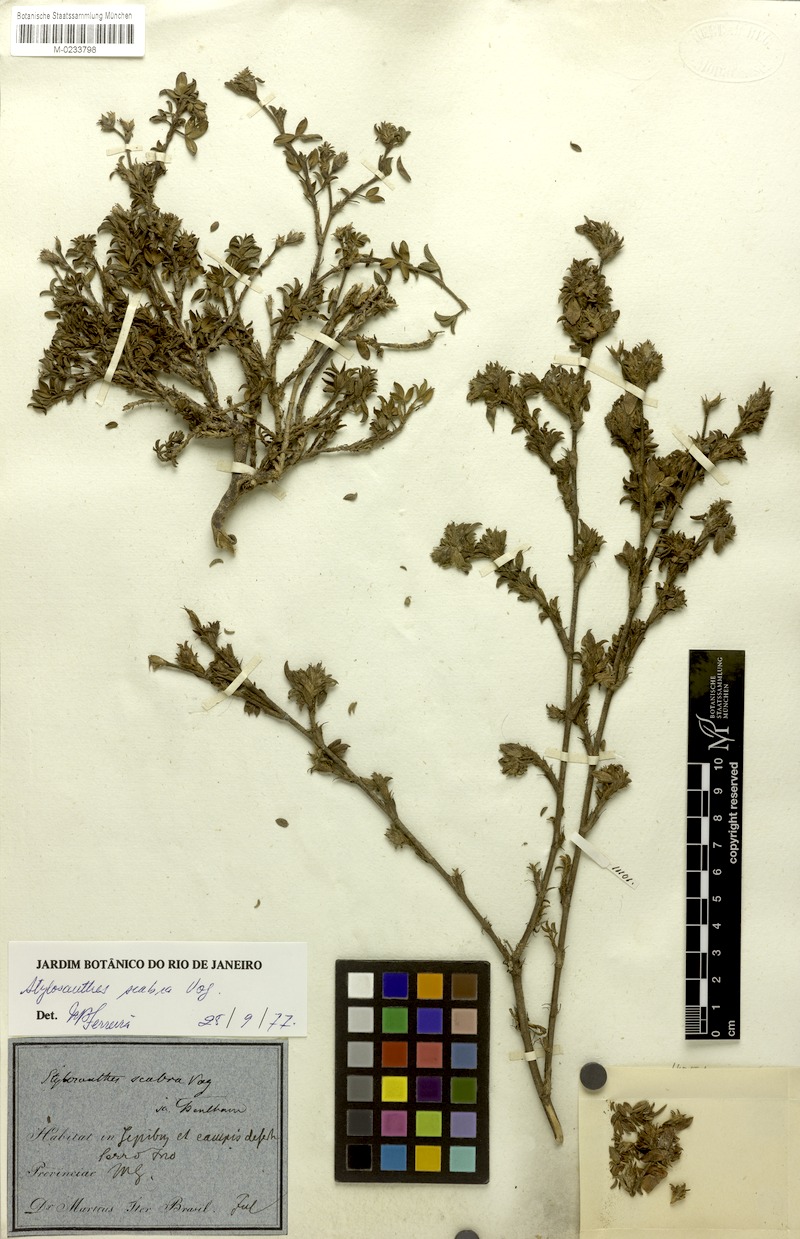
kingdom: Plantae
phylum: Tracheophyta
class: Magnoliopsida
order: Fabales
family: Fabaceae
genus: Stylosanthes
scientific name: Stylosanthes scabra
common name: Pencilflower
